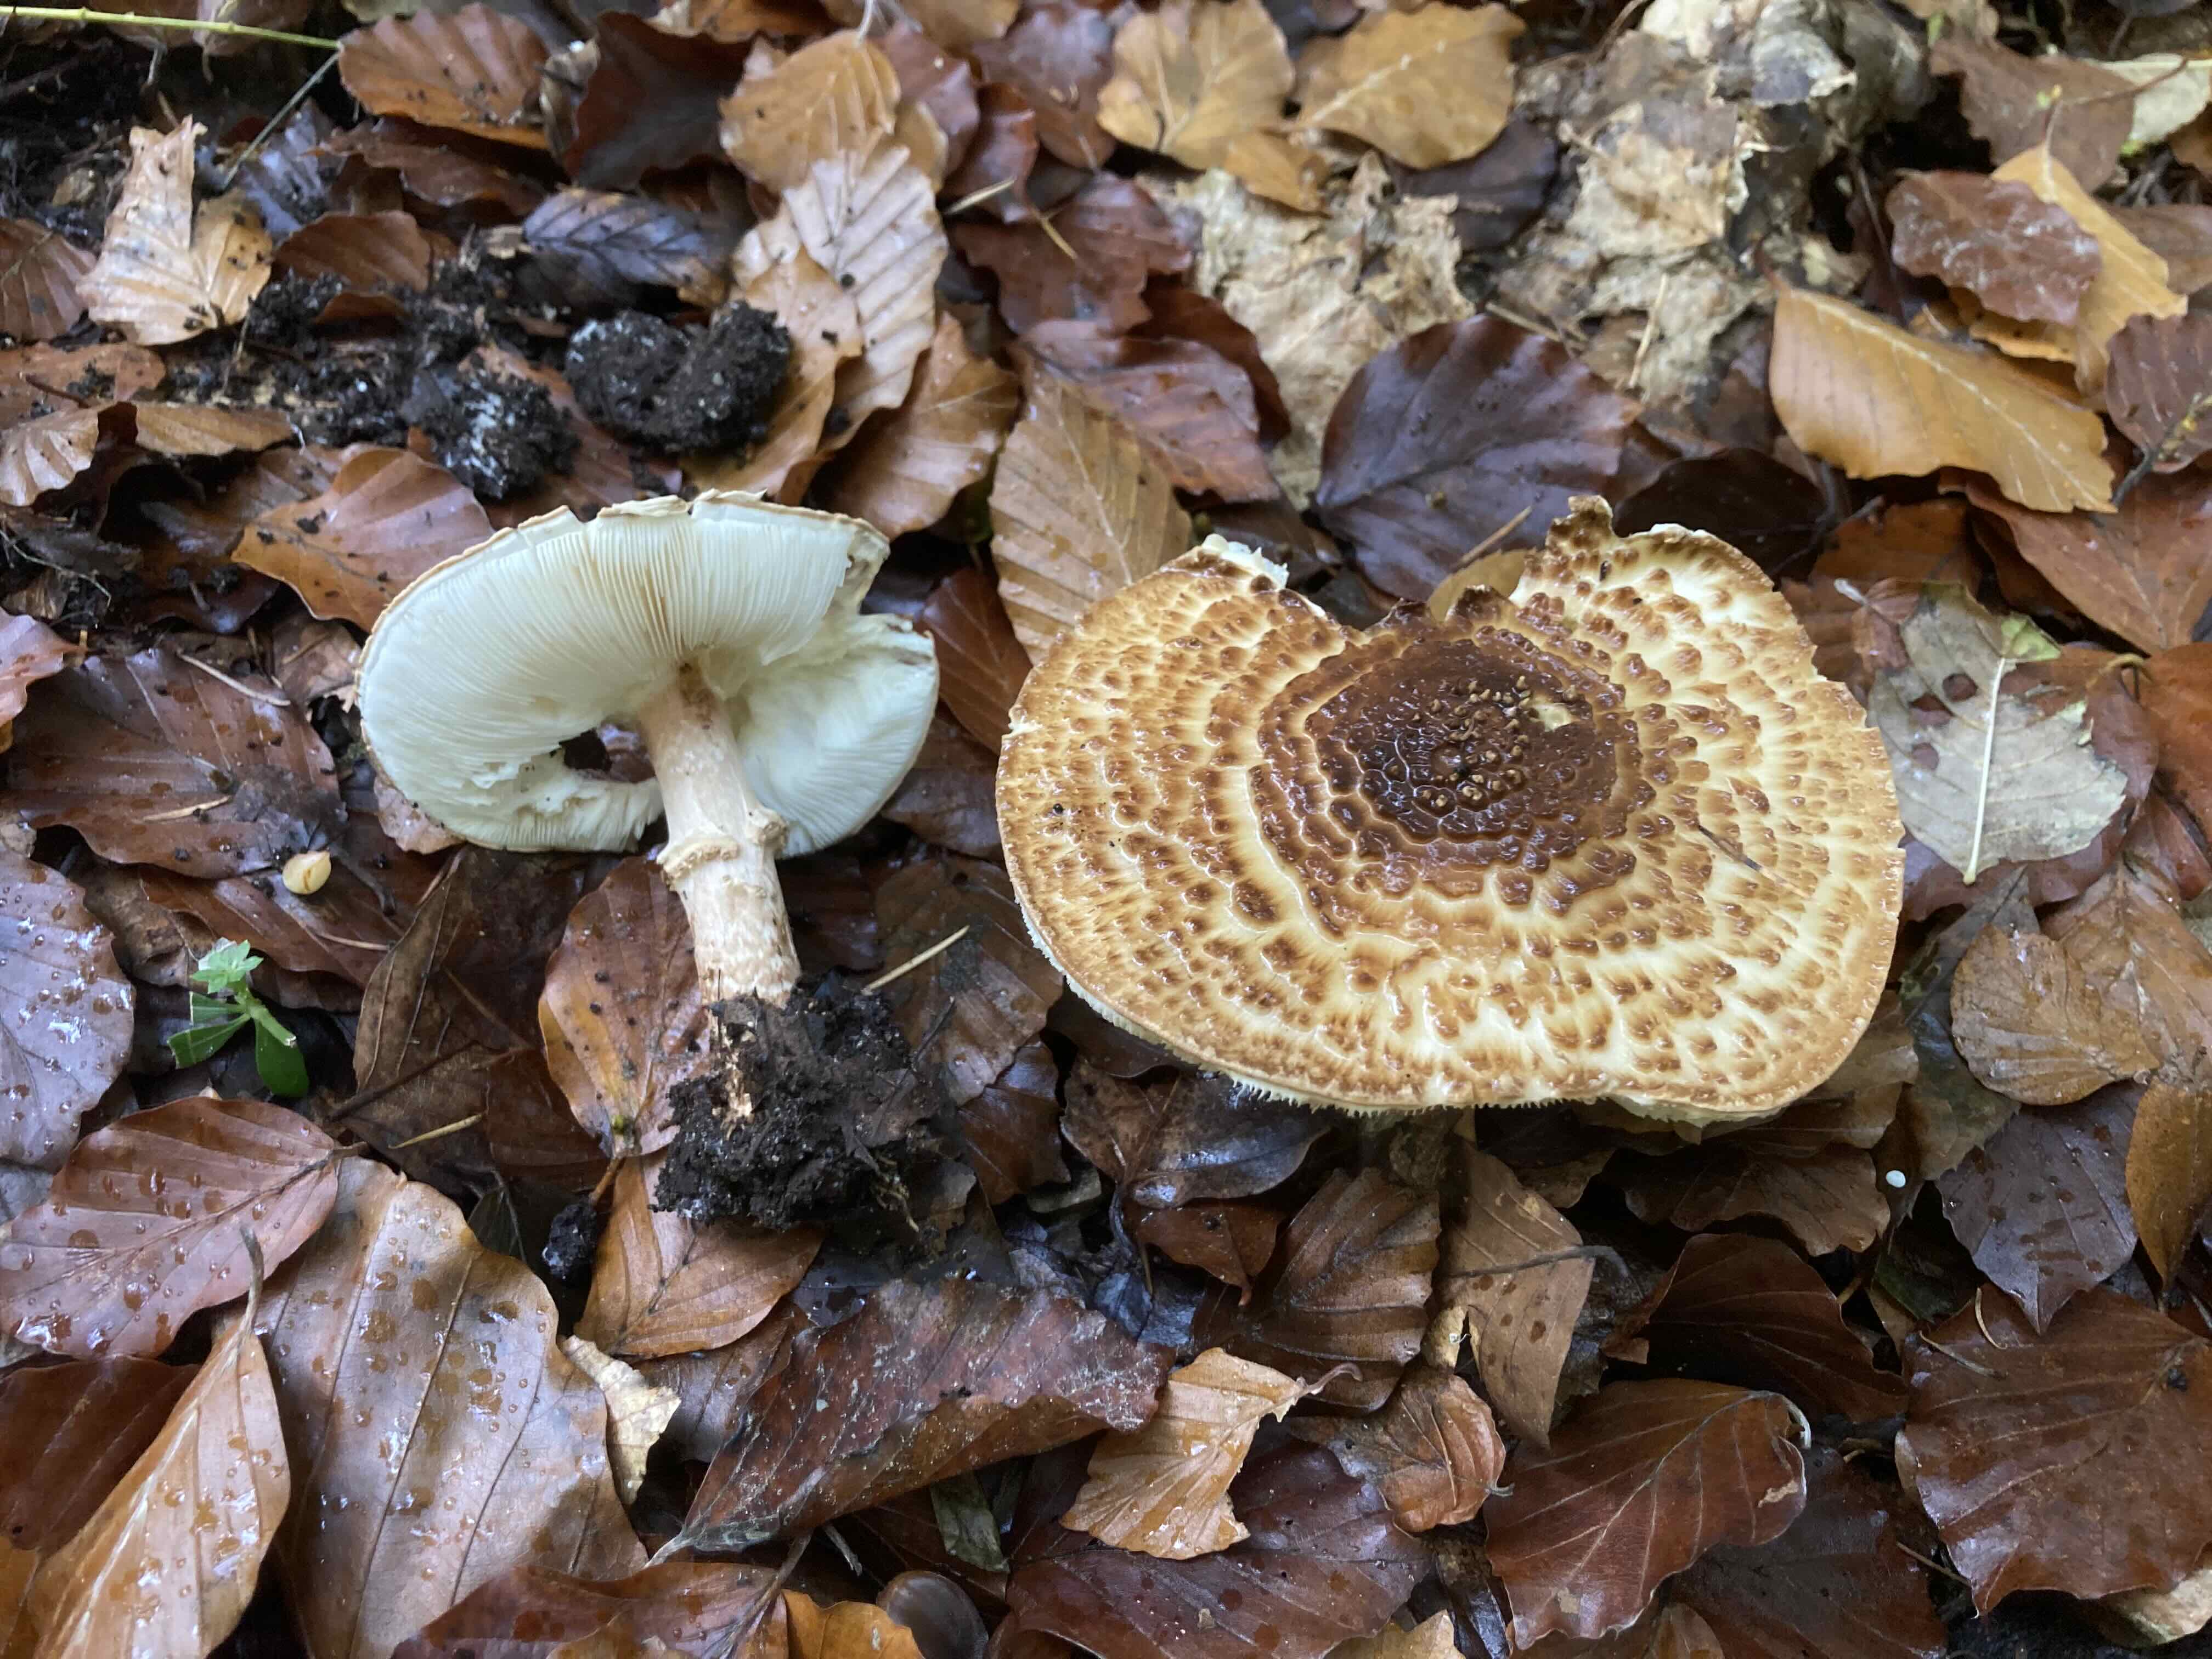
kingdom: Fungi
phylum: Basidiomycota
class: Agaricomycetes
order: Agaricales
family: Agaricaceae
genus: Echinoderma
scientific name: Echinoderma asperum
